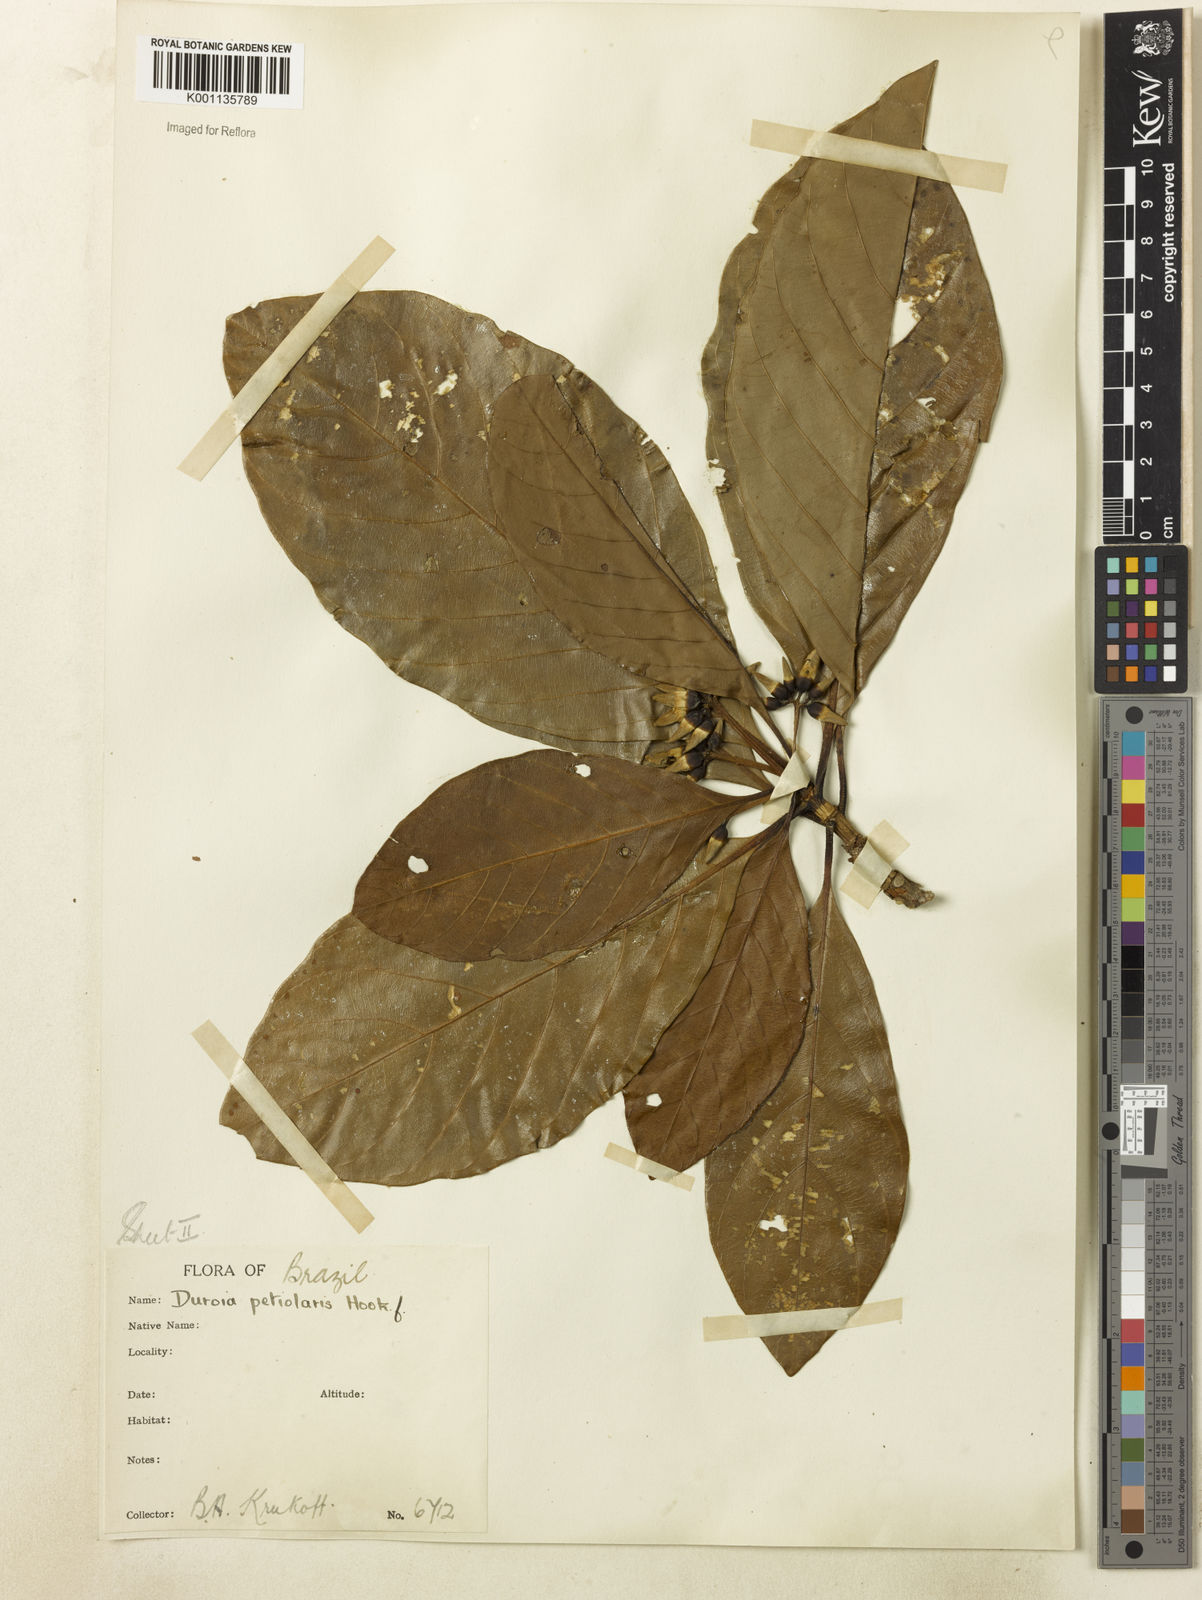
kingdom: Plantae
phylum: Tracheophyta
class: Magnoliopsida
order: Gentianales
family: Rubiaceae
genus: Duroia
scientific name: Duroia petiolaris
